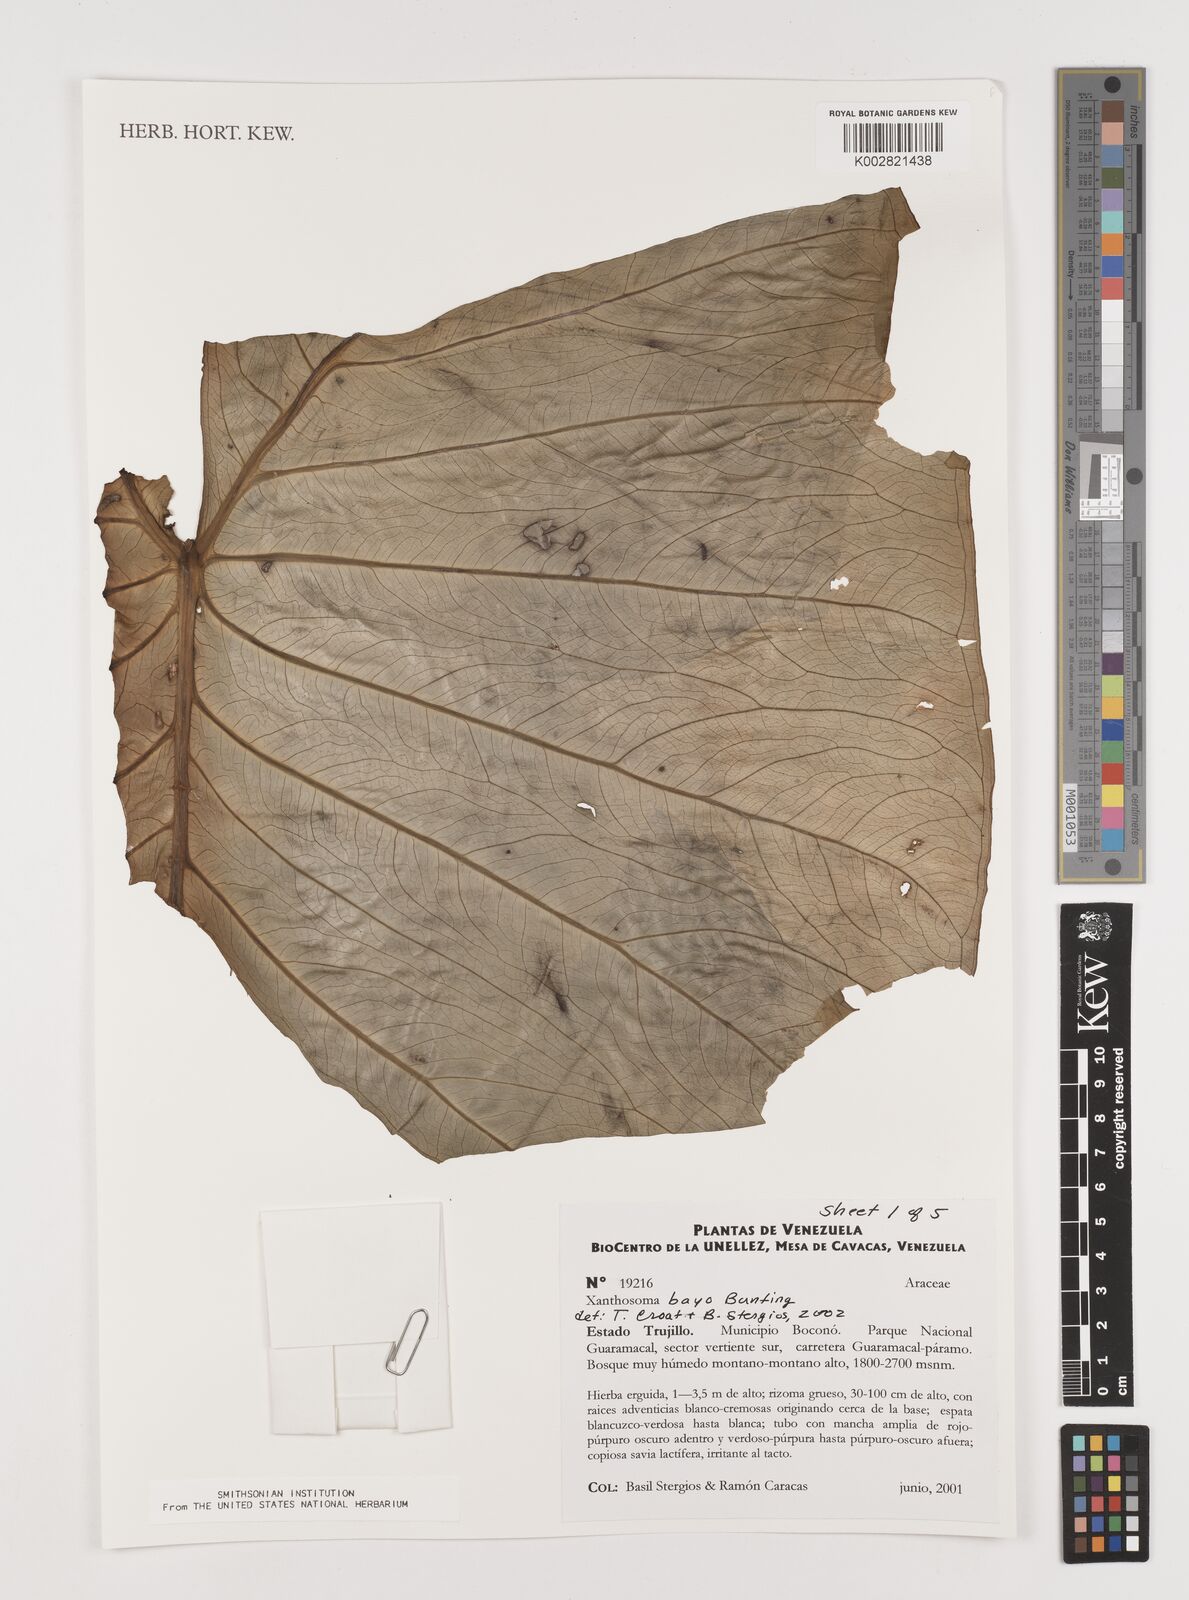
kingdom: Plantae
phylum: Tracheophyta
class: Liliopsida
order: Alismatales
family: Araceae
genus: Xanthosoma
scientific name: Xanthosoma bayo
